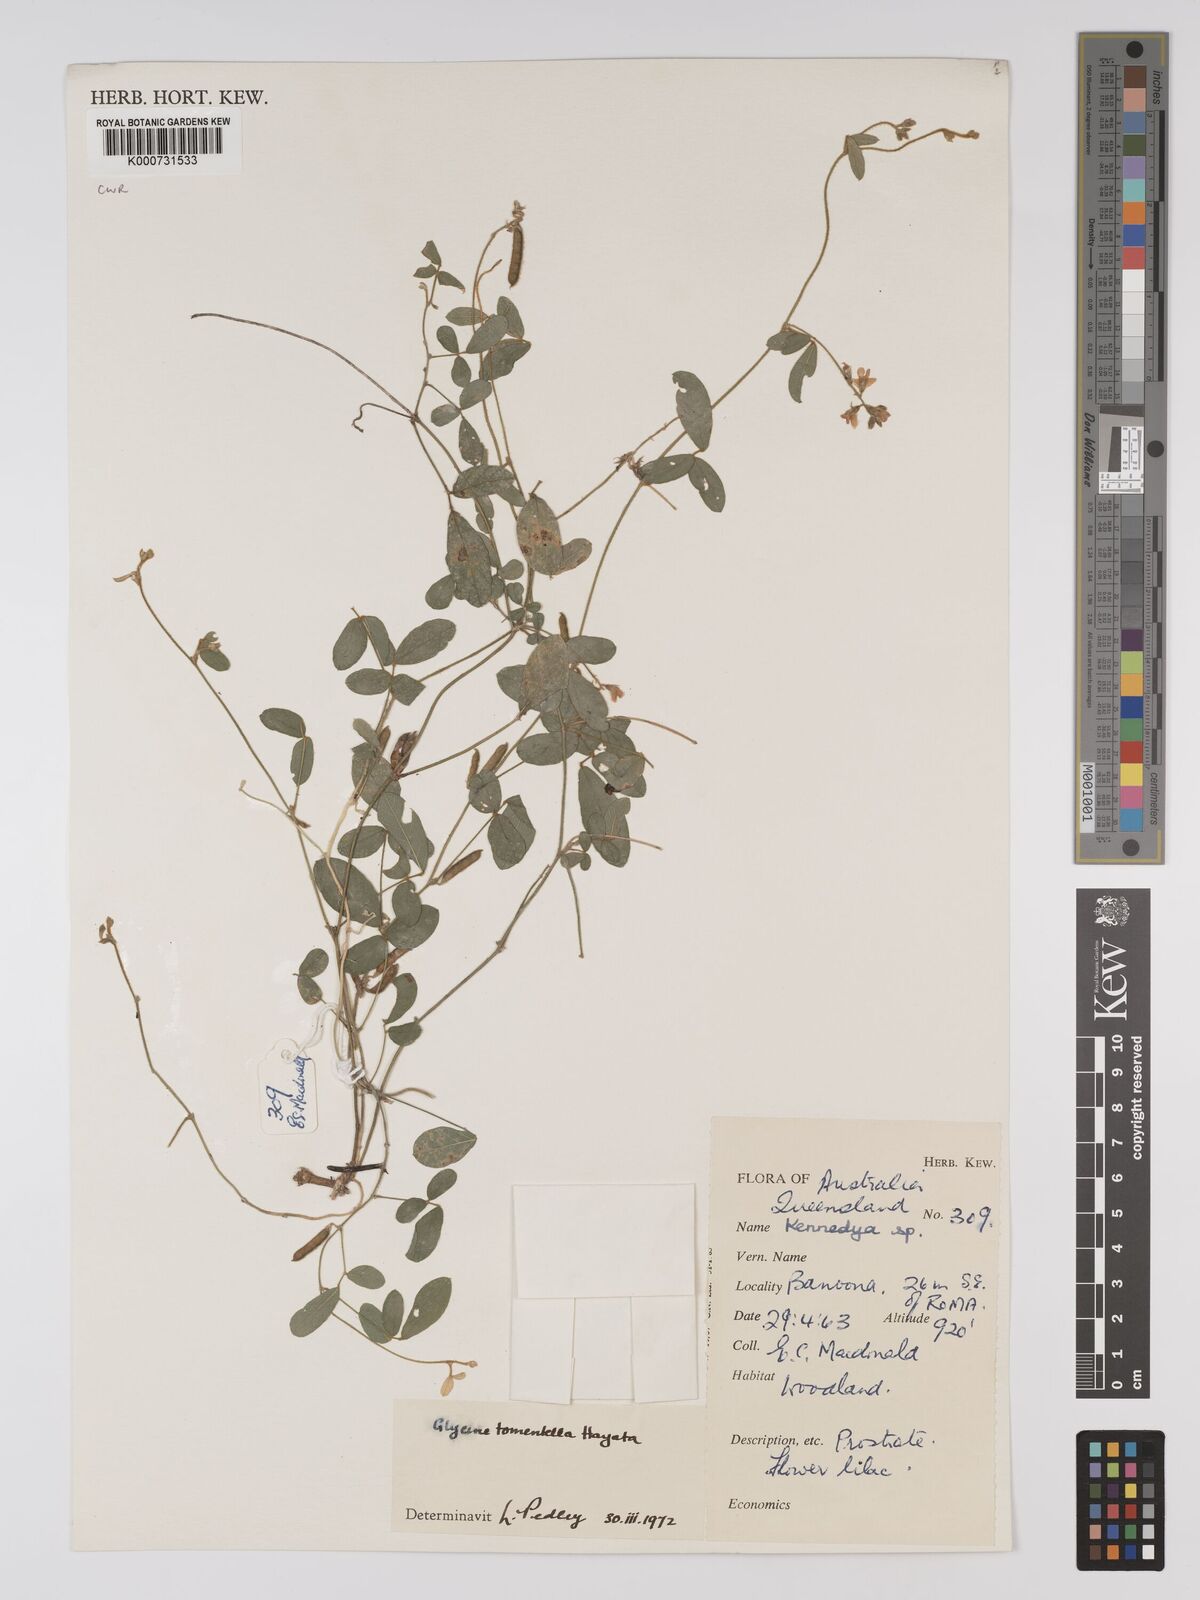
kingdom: Plantae
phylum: Tracheophyta
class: Magnoliopsida
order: Fabales
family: Fabaceae
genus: Glycine
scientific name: Glycine tomentella
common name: Hairy glycine
